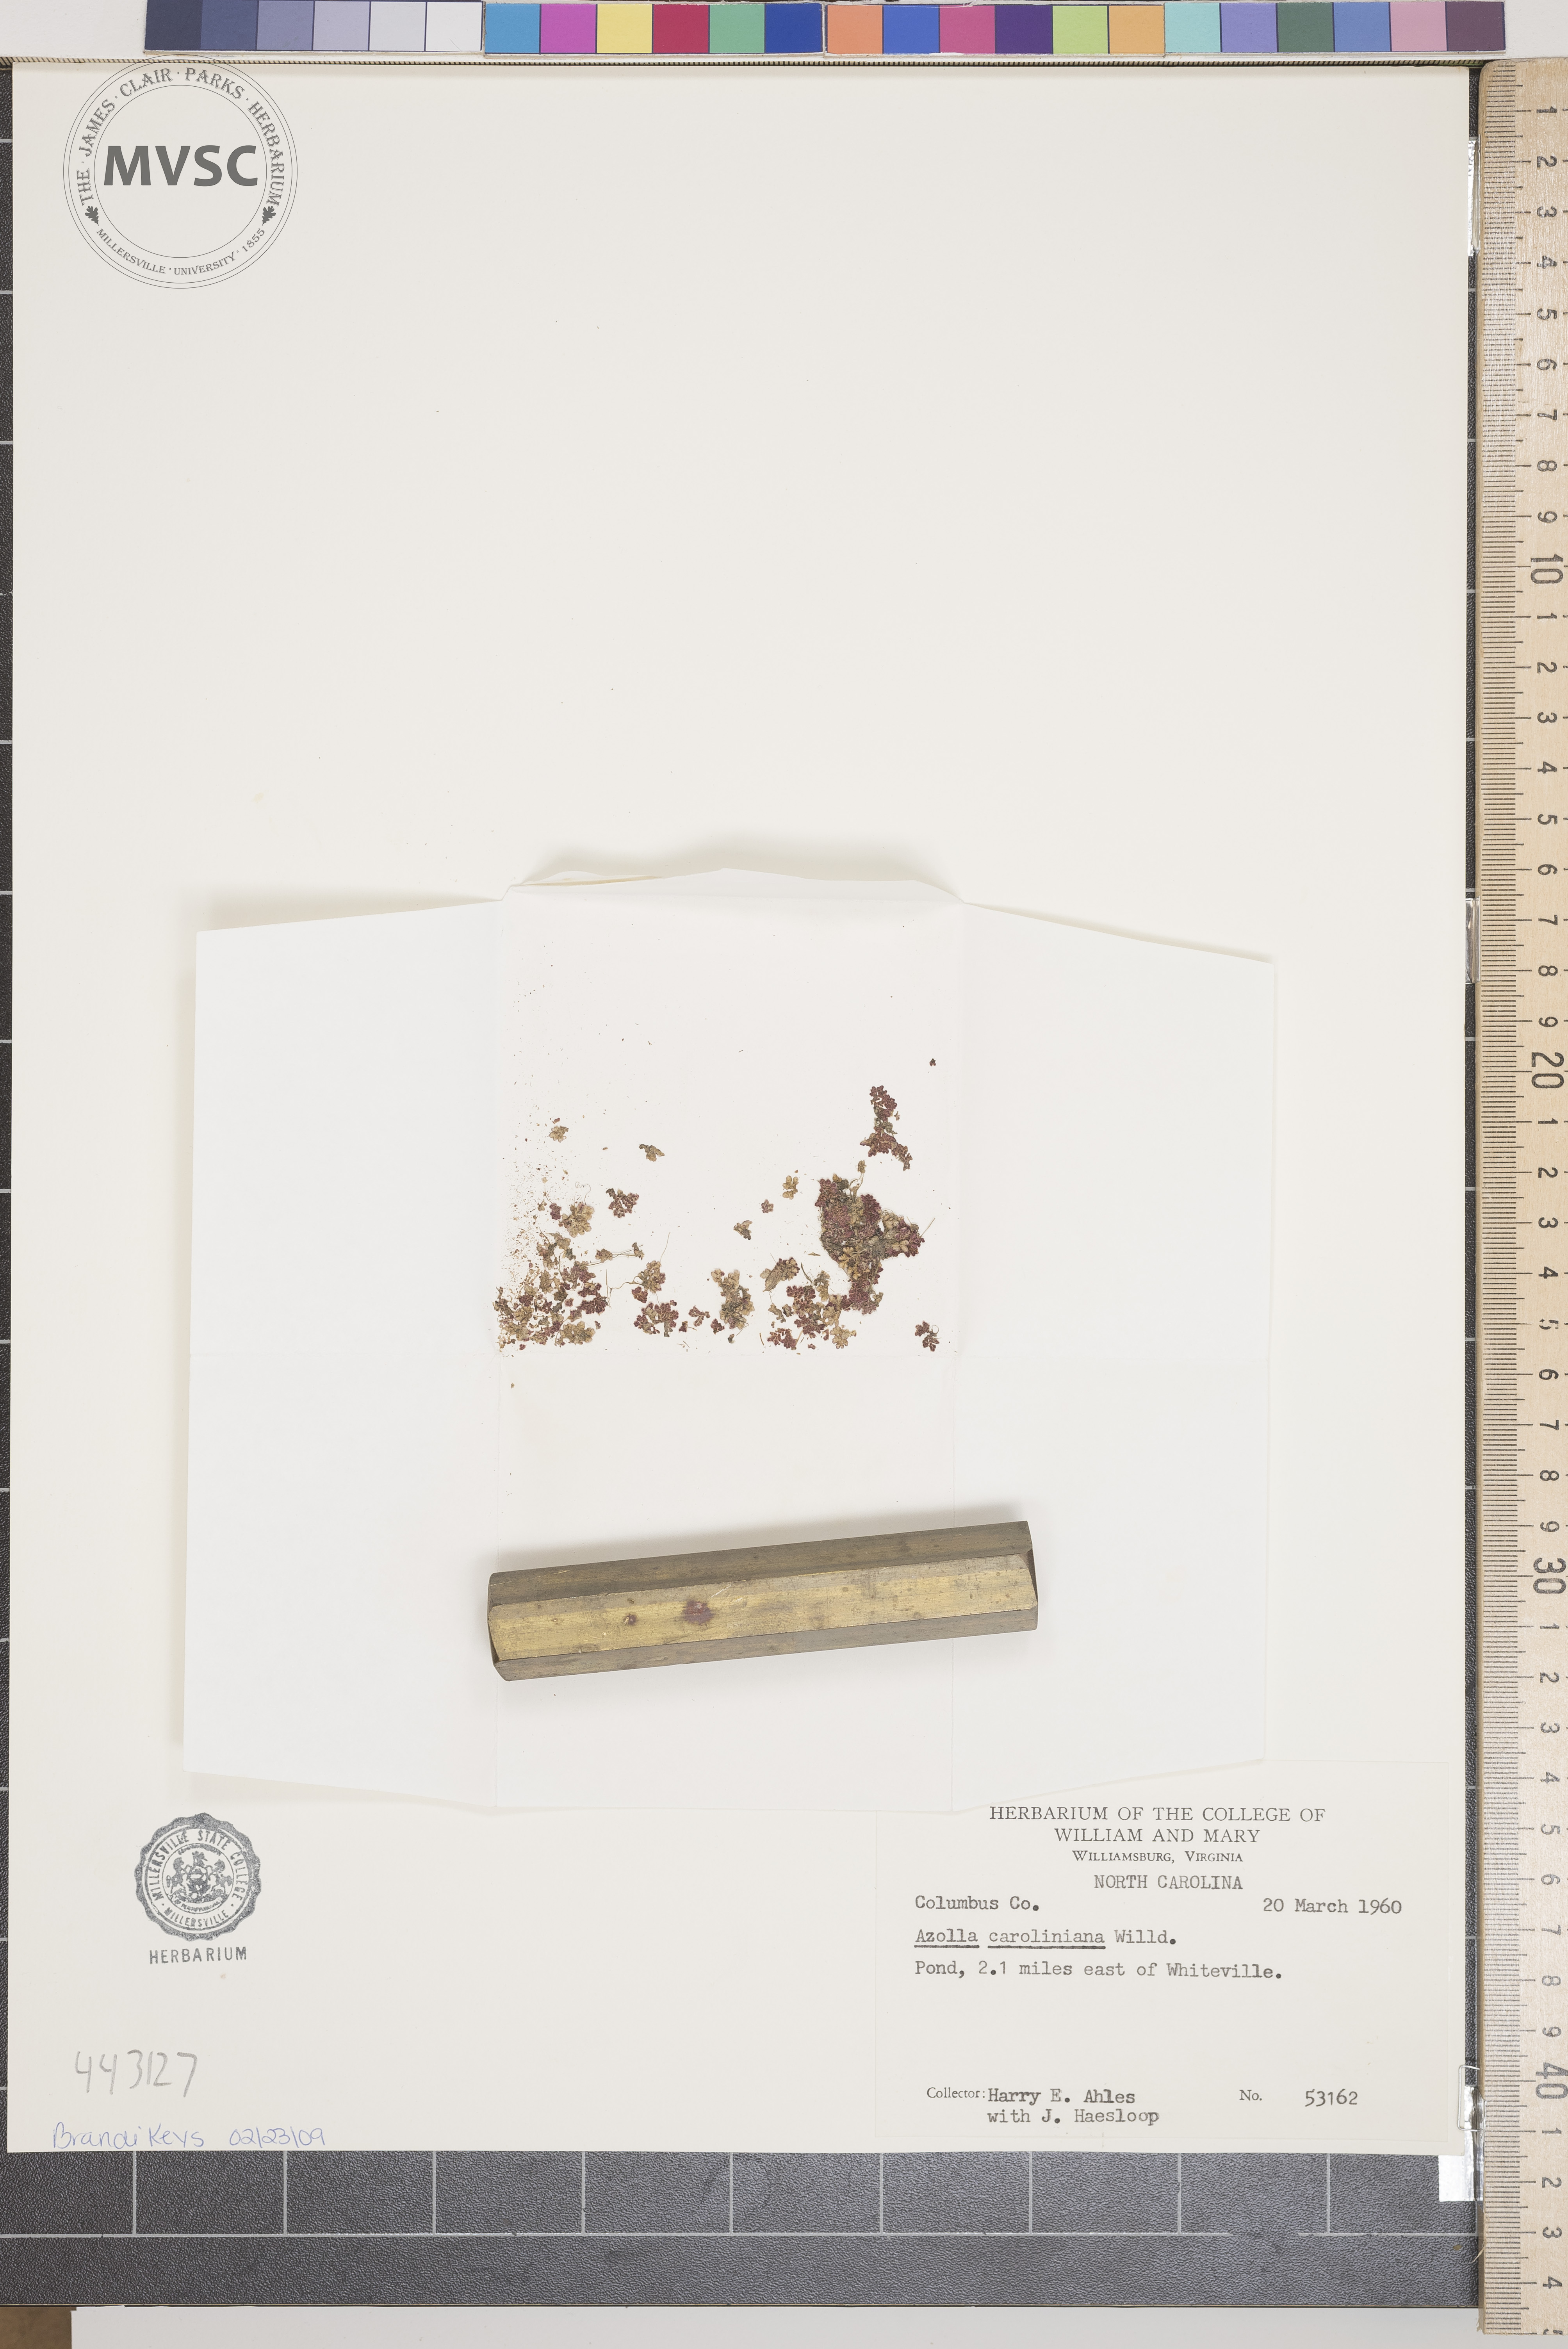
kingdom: Plantae
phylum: Tracheophyta
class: Polypodiopsida
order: Salviniales
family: Salviniaceae
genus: Azolla
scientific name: Azolla caroliniana
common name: Carolina mosquitofern
